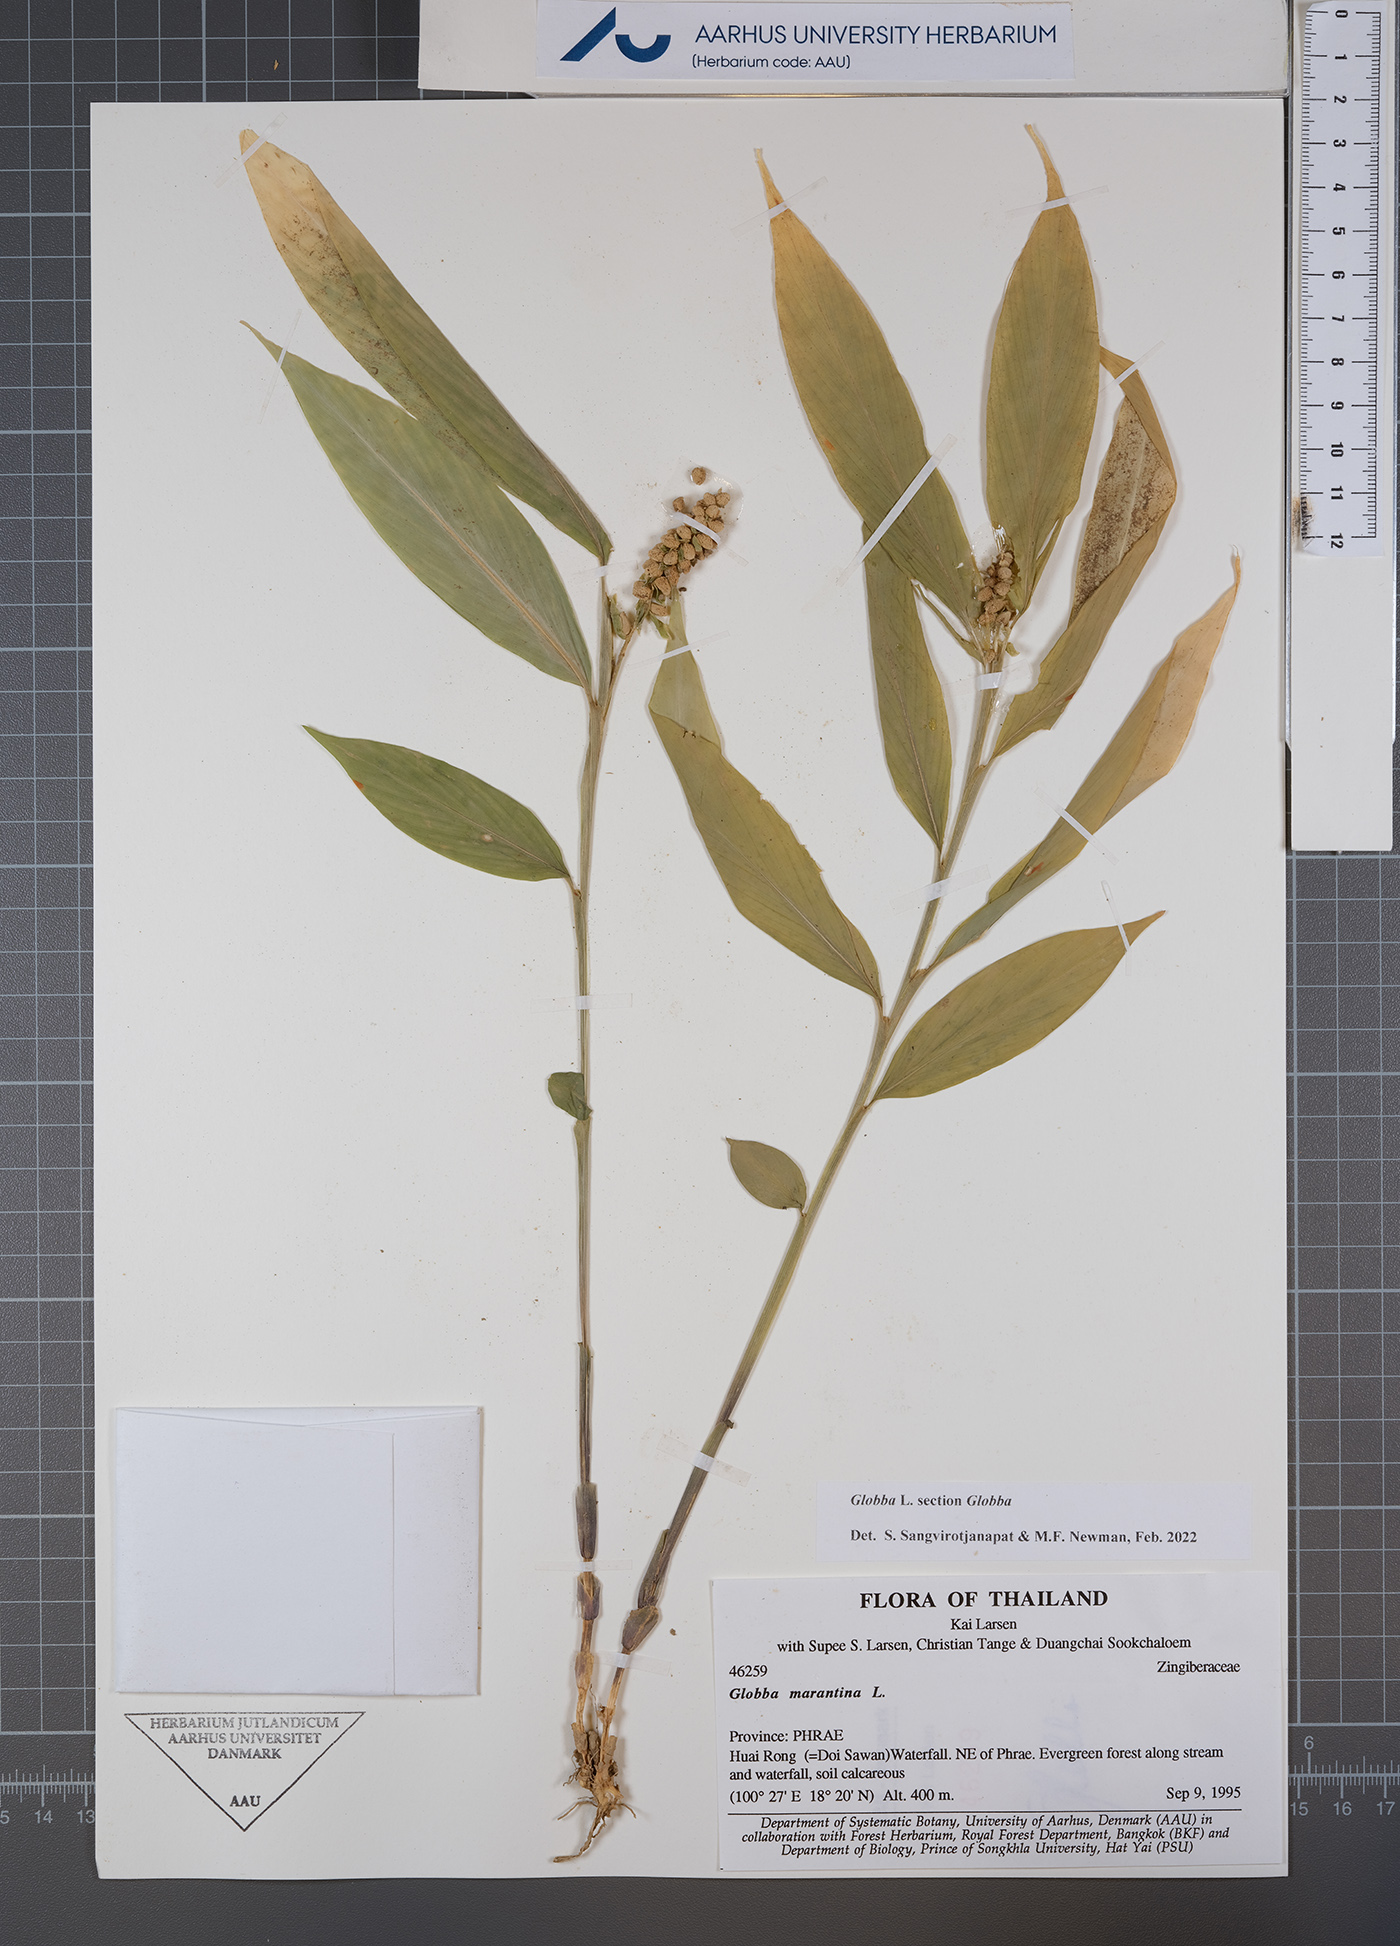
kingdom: Plantae
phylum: Tracheophyta
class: Liliopsida
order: Zingiberales
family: Zingiberaceae
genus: Globba
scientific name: Globba
